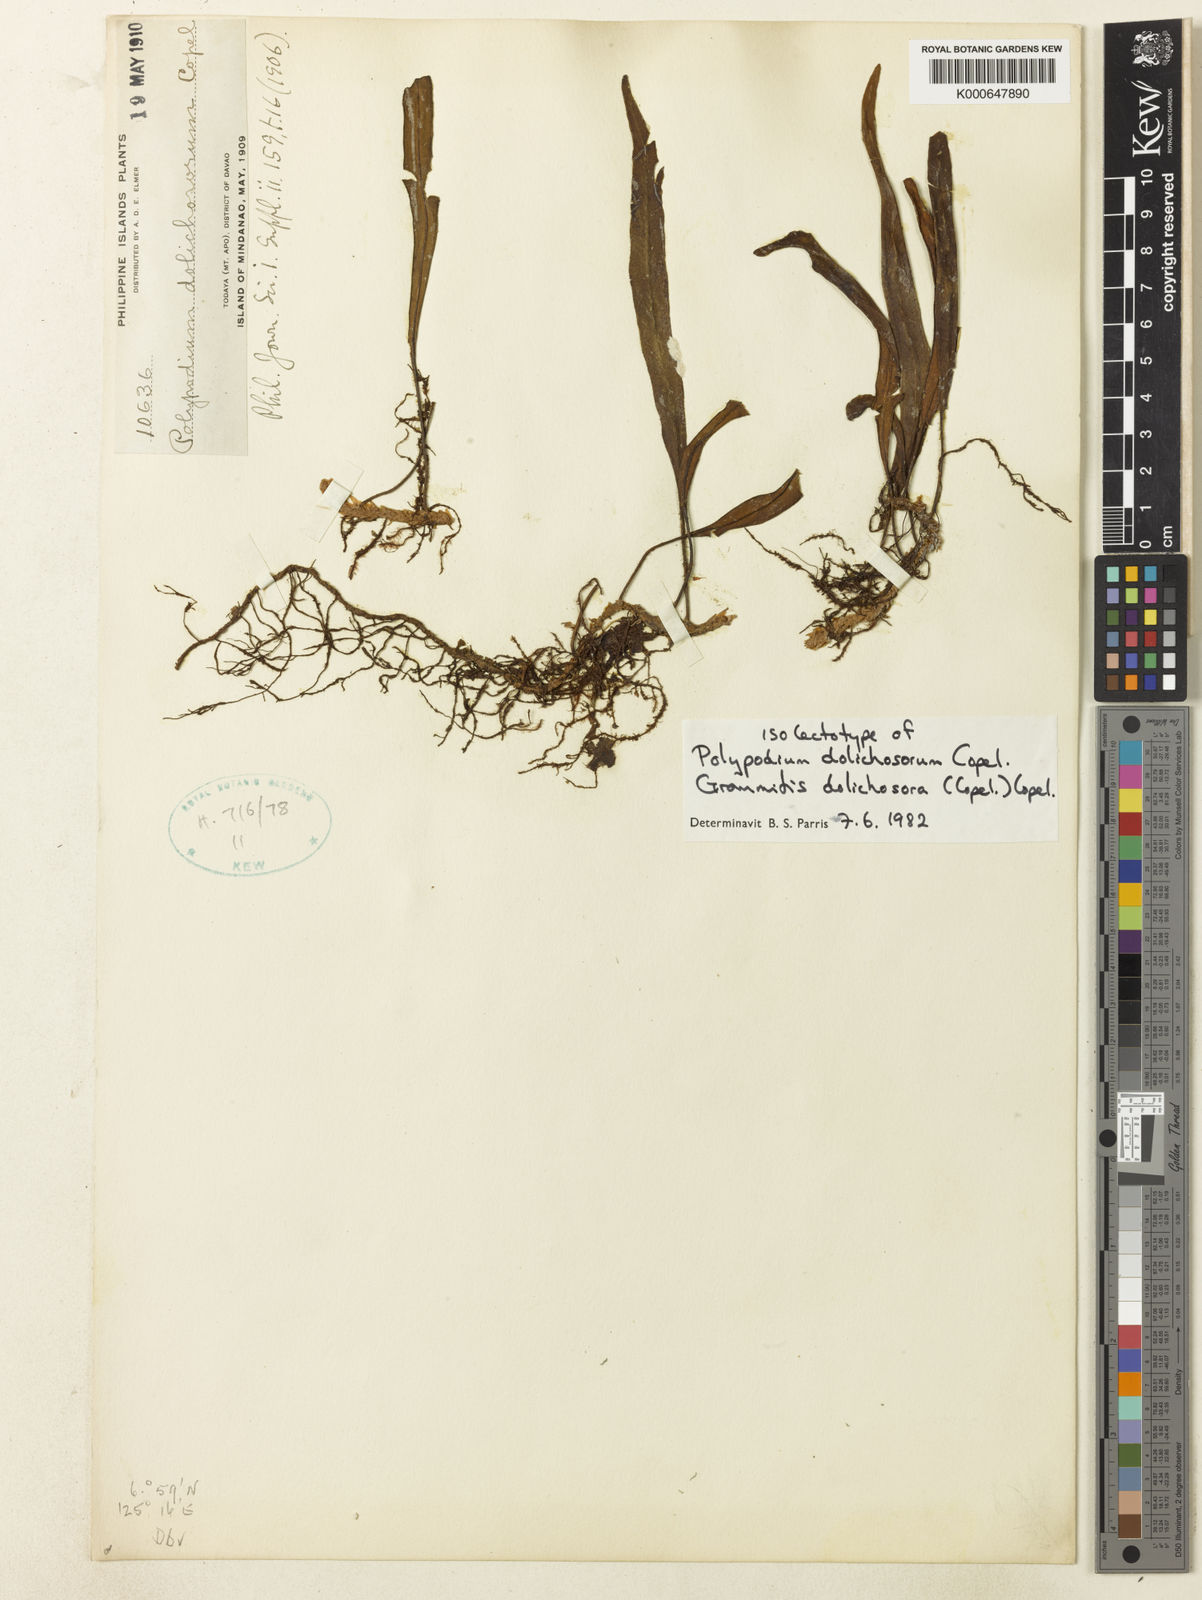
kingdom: Plantae
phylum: Tracheophyta
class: Polypodiopsida
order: Polypodiales
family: Polypodiaceae
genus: Oreogrammitis
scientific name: Oreogrammitis dolichosora
